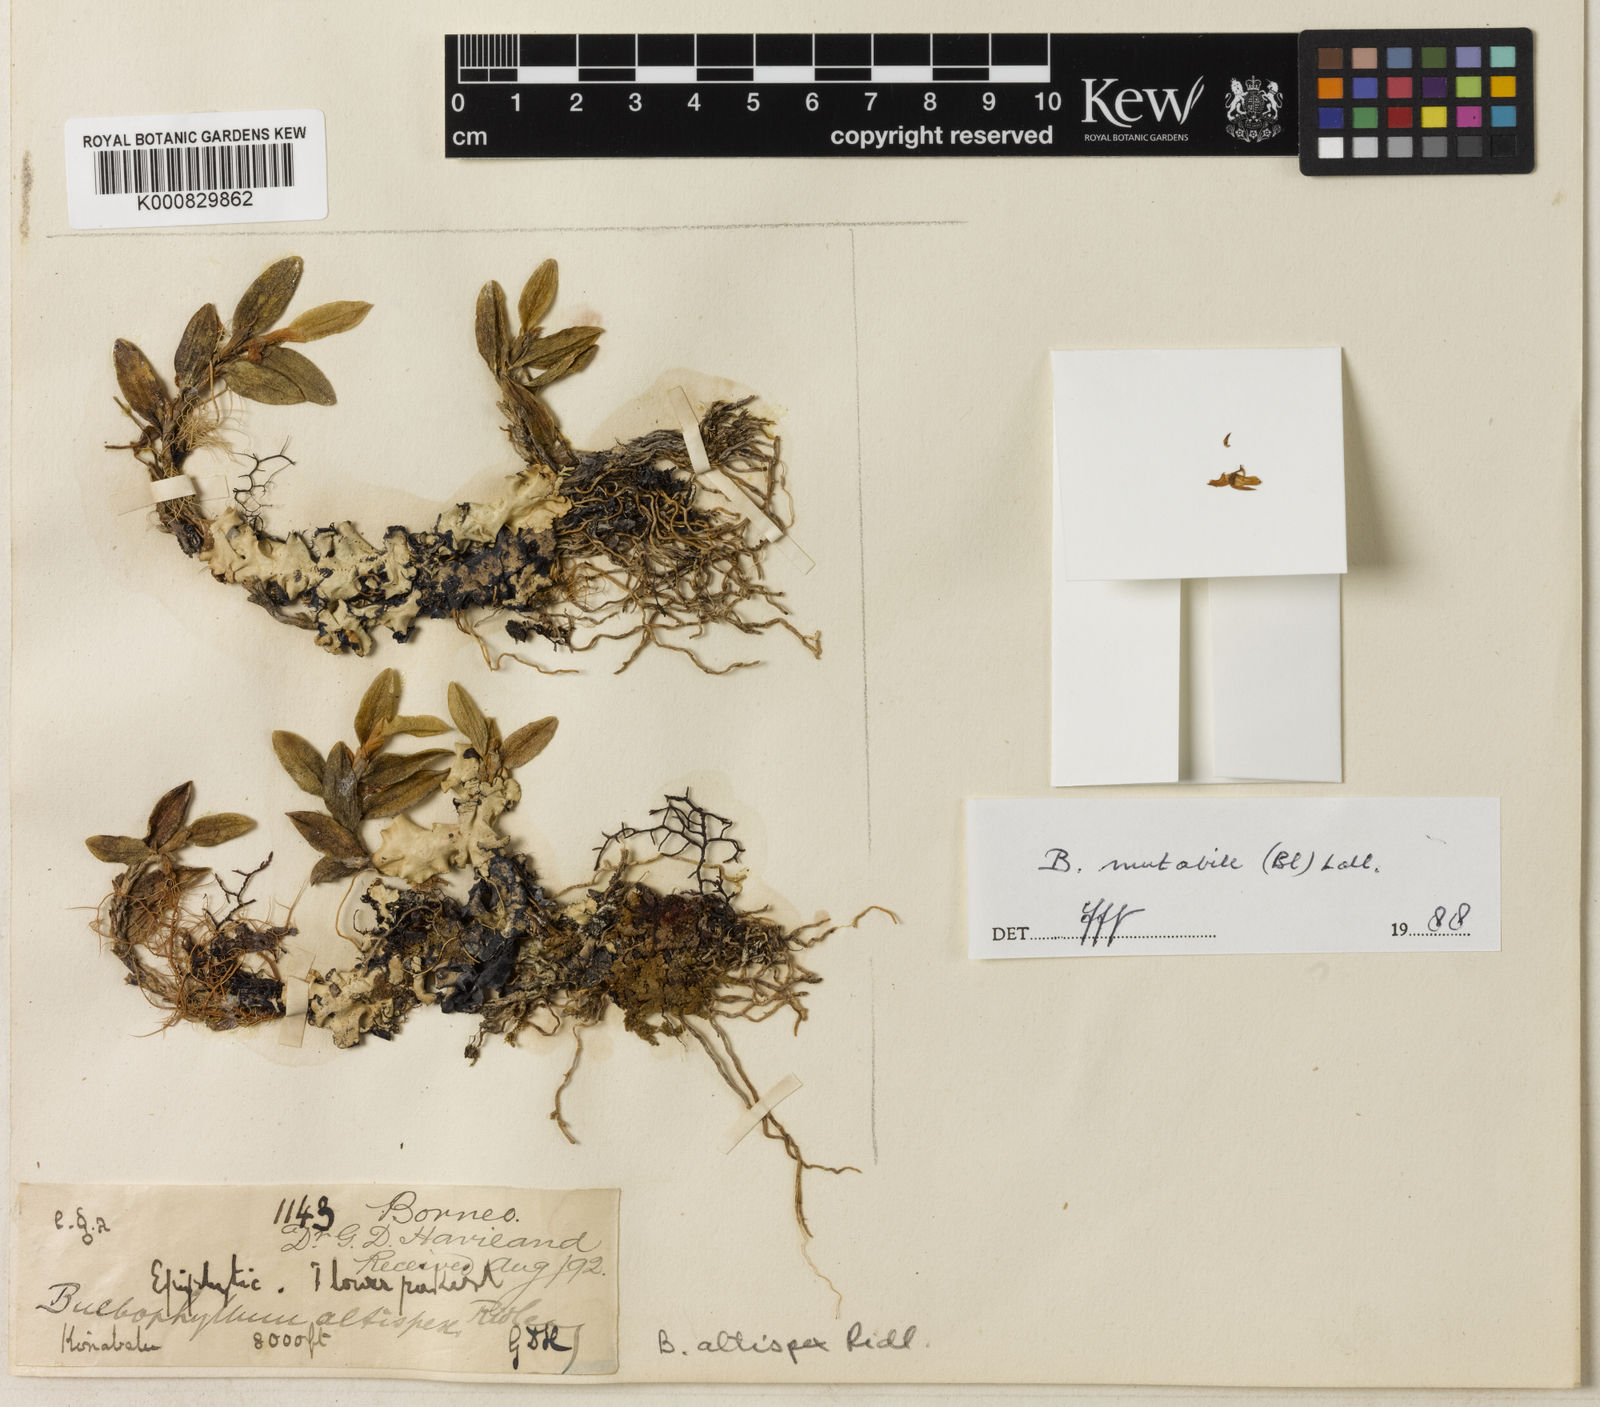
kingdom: Plantae
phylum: Tracheophyta
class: Liliopsida
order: Asparagales
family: Orchidaceae
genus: Bulbophyllum
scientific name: Bulbophyllum mutabile
